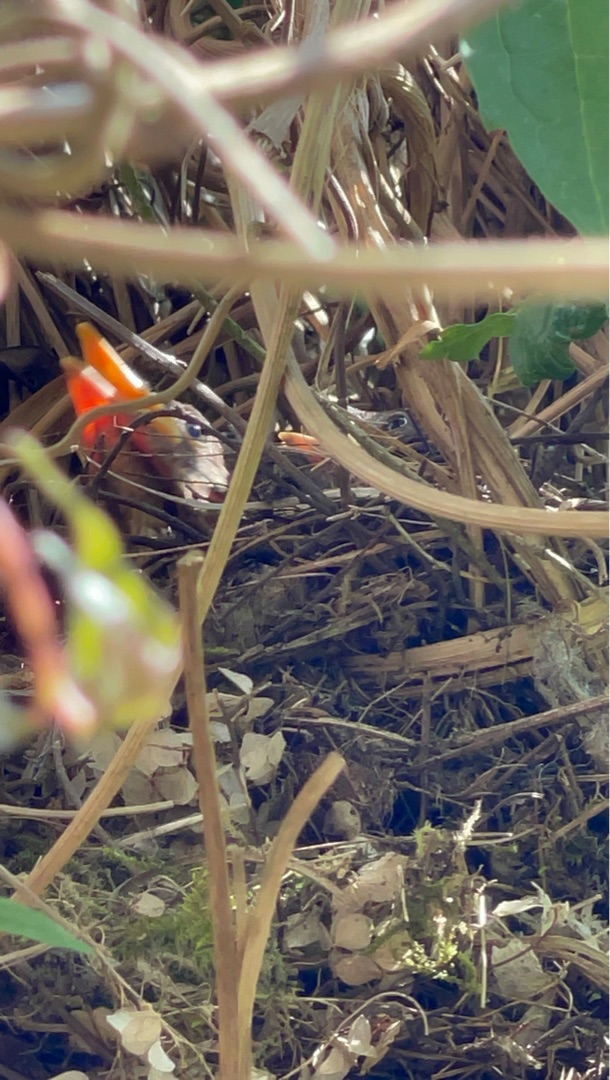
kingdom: Animalia
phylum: Chordata
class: Aves
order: Passeriformes
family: Turdidae
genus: Turdus
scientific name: Turdus merula
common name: Solsort
